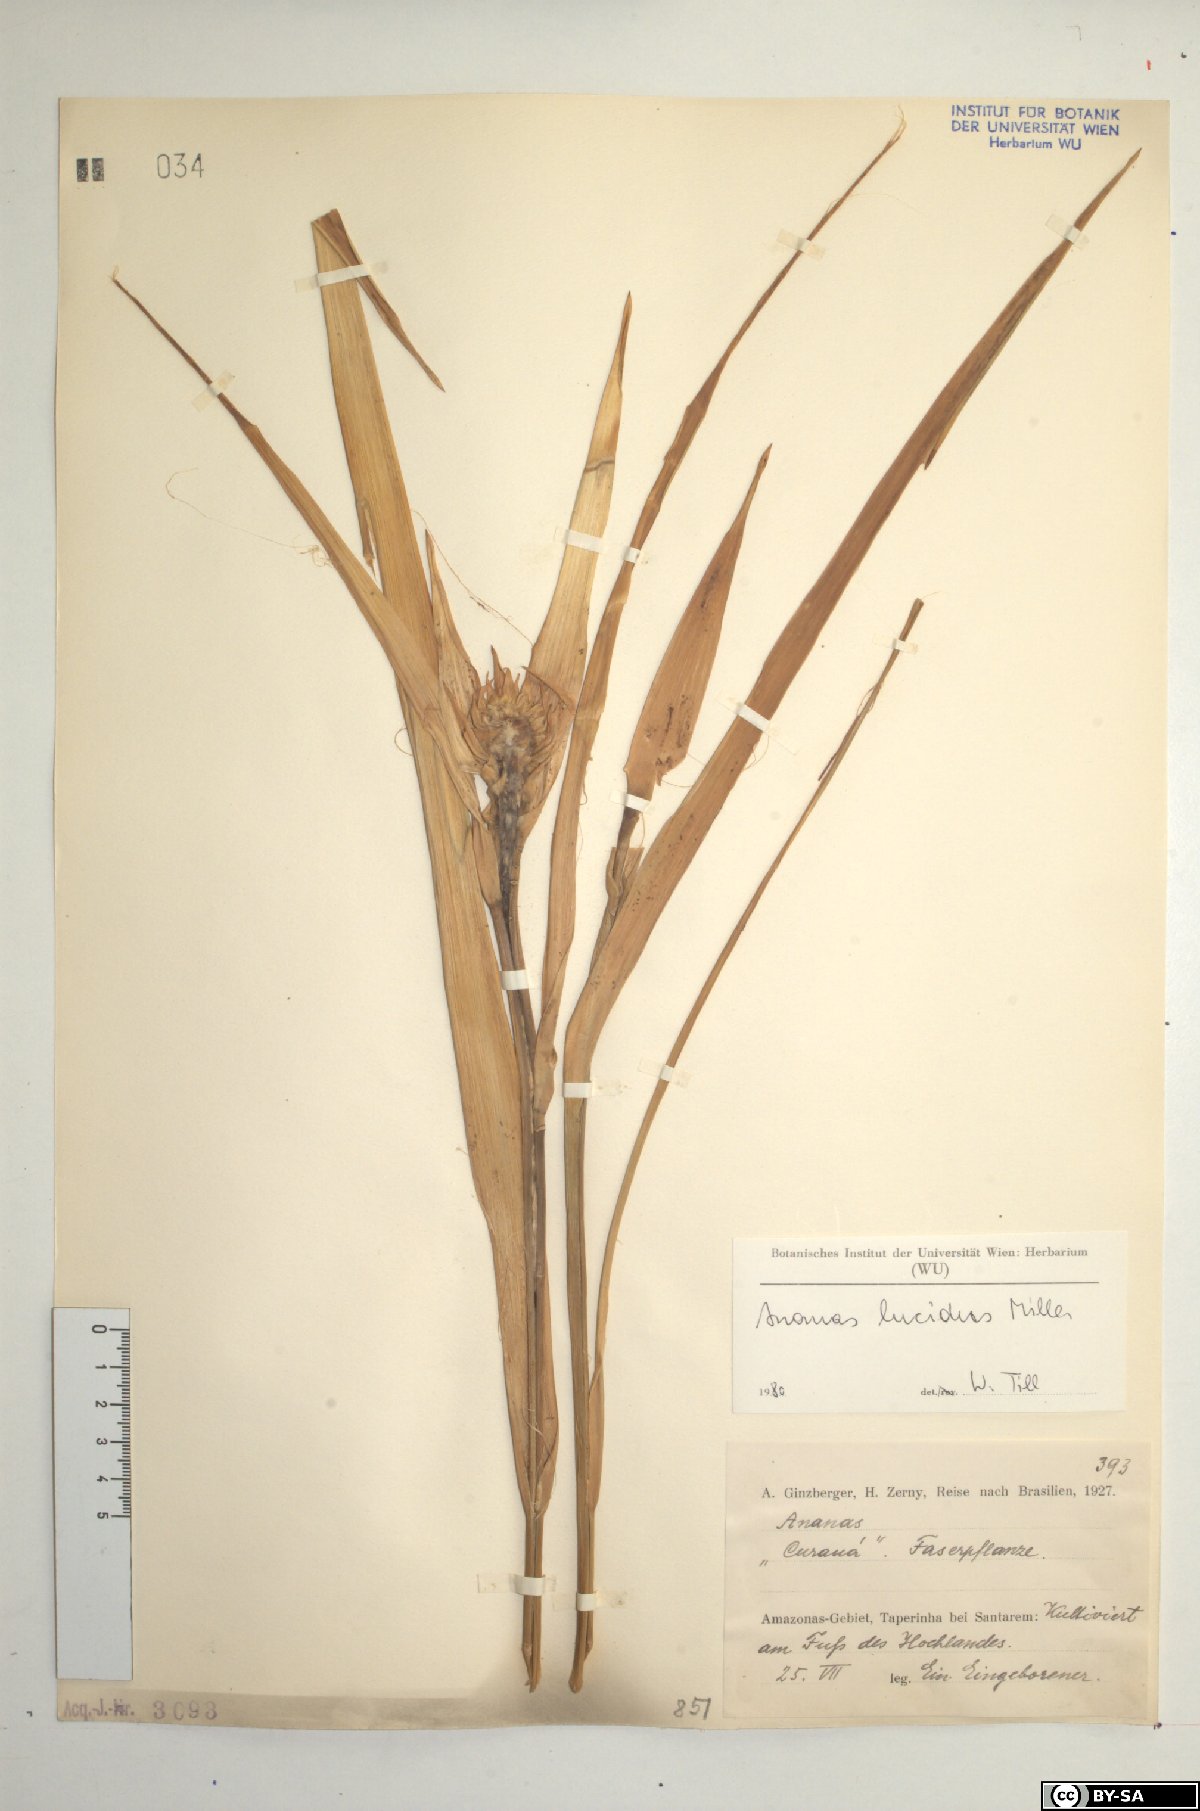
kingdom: Plantae
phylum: Tracheophyta
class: Liliopsida
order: Poales
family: Bromeliaceae
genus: Ananas
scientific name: Ananas comosus
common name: Pineapple
